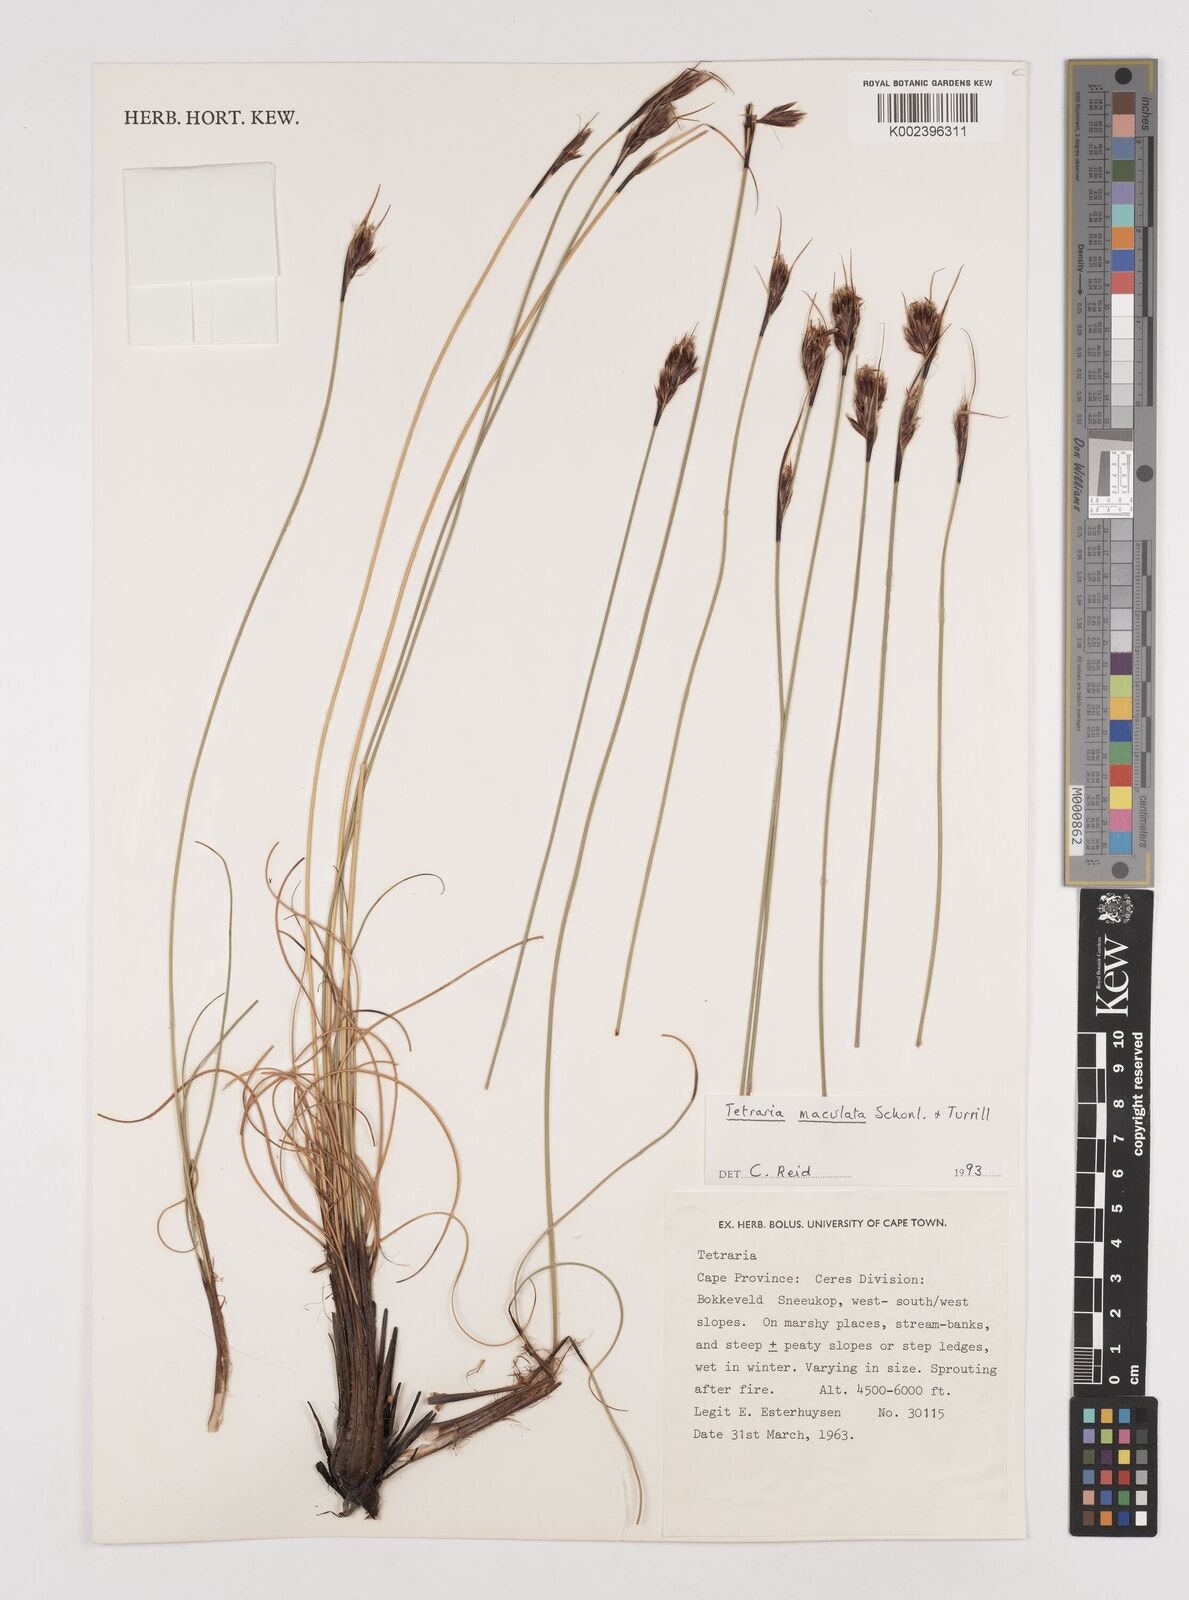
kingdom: Plantae
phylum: Tracheophyta
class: Liliopsida
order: Poales
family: Cyperaceae
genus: Tetraria
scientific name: Tetraria maculata
